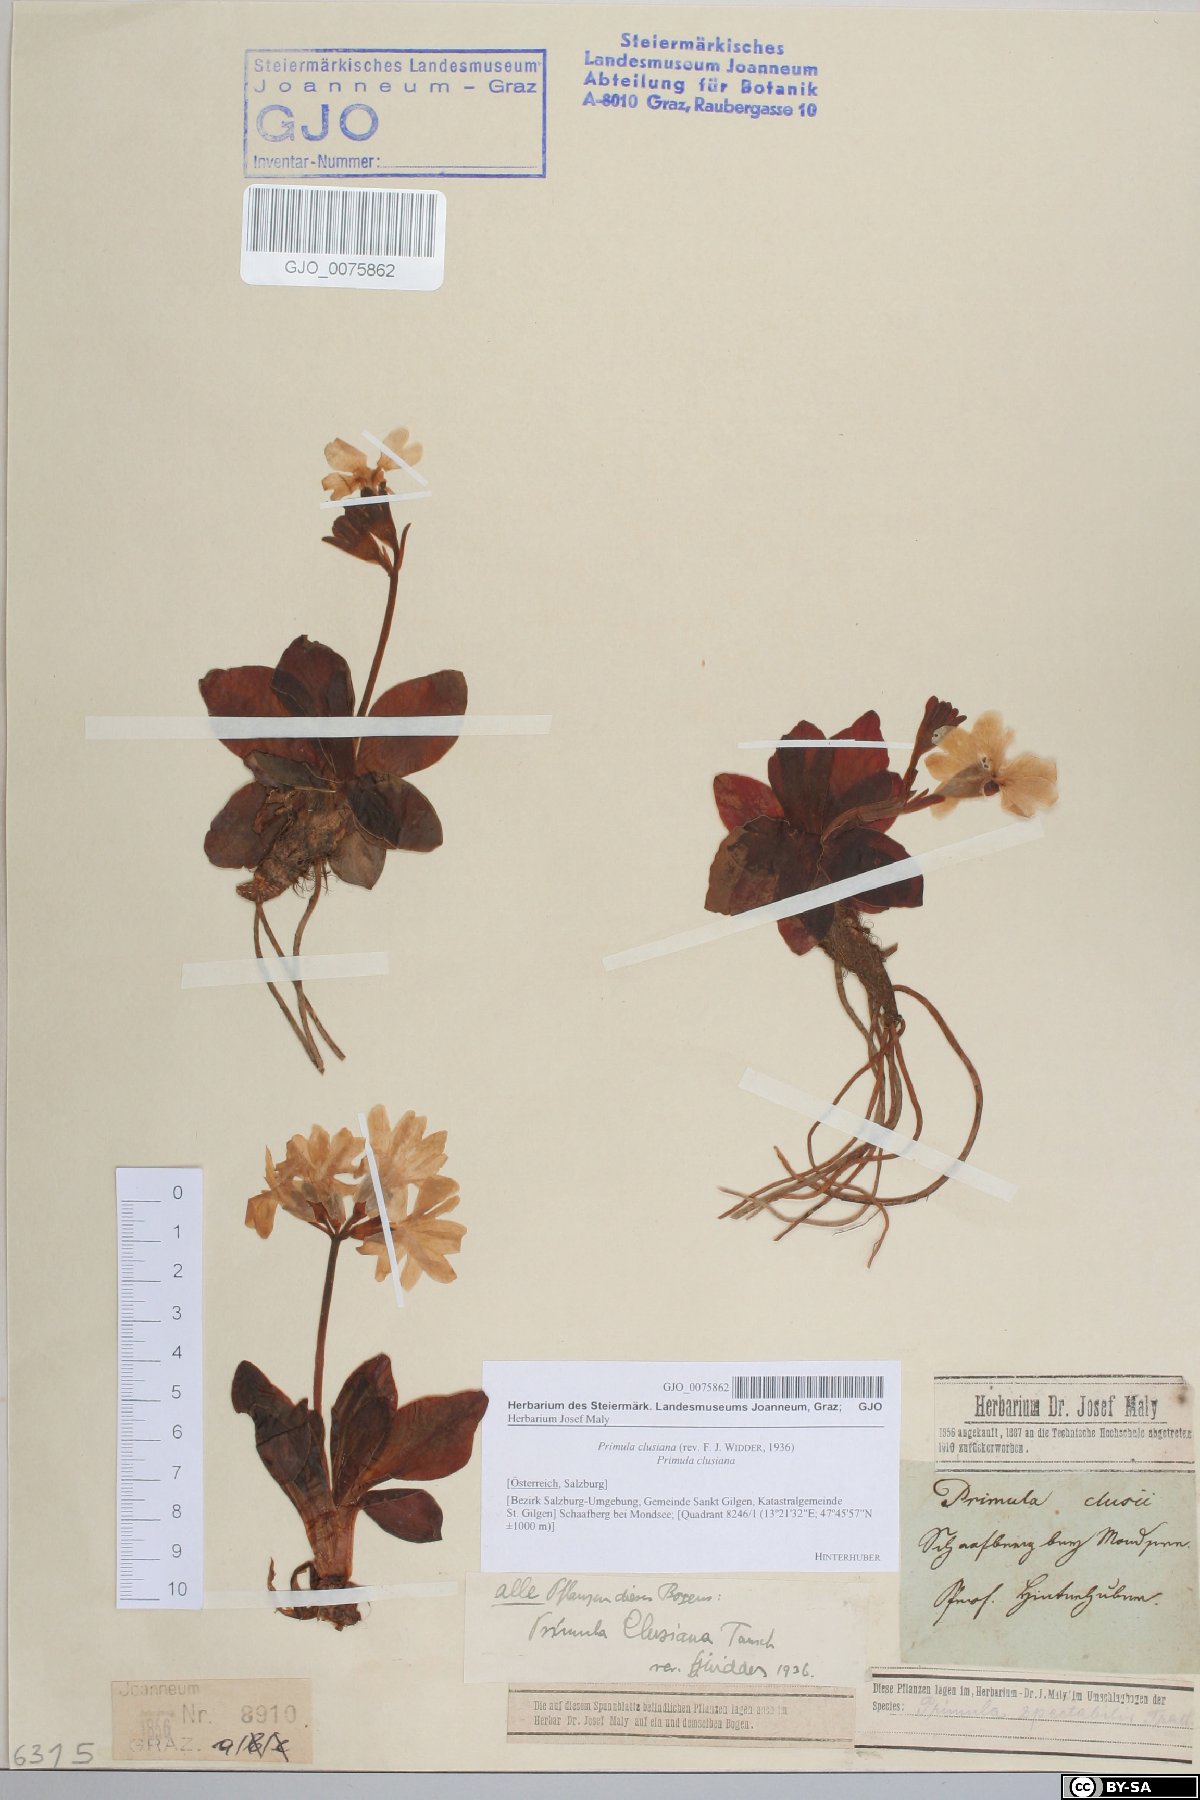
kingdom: Plantae
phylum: Tracheophyta
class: Magnoliopsida
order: Ericales
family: Primulaceae
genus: Primula
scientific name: Primula clusiana
